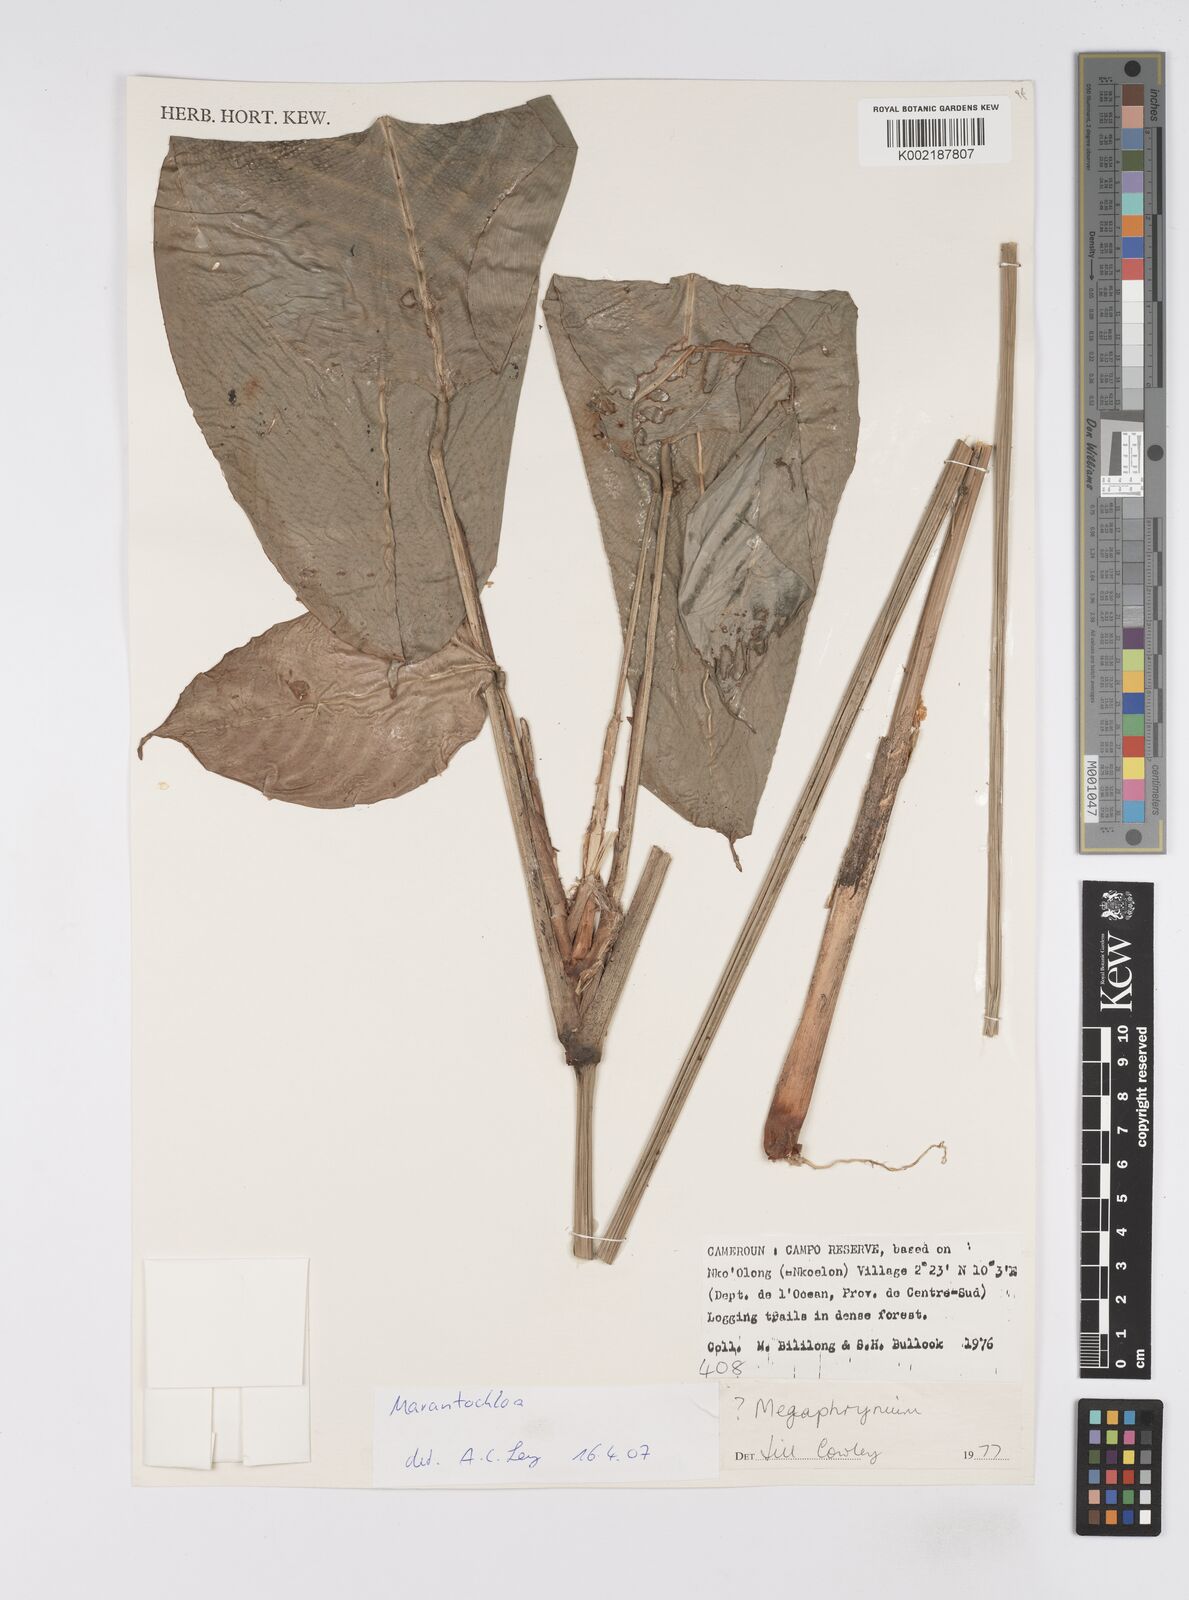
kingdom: Plantae
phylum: Tracheophyta
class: Liliopsida
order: Zingiberales
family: Marantaceae
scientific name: Marantaceae
